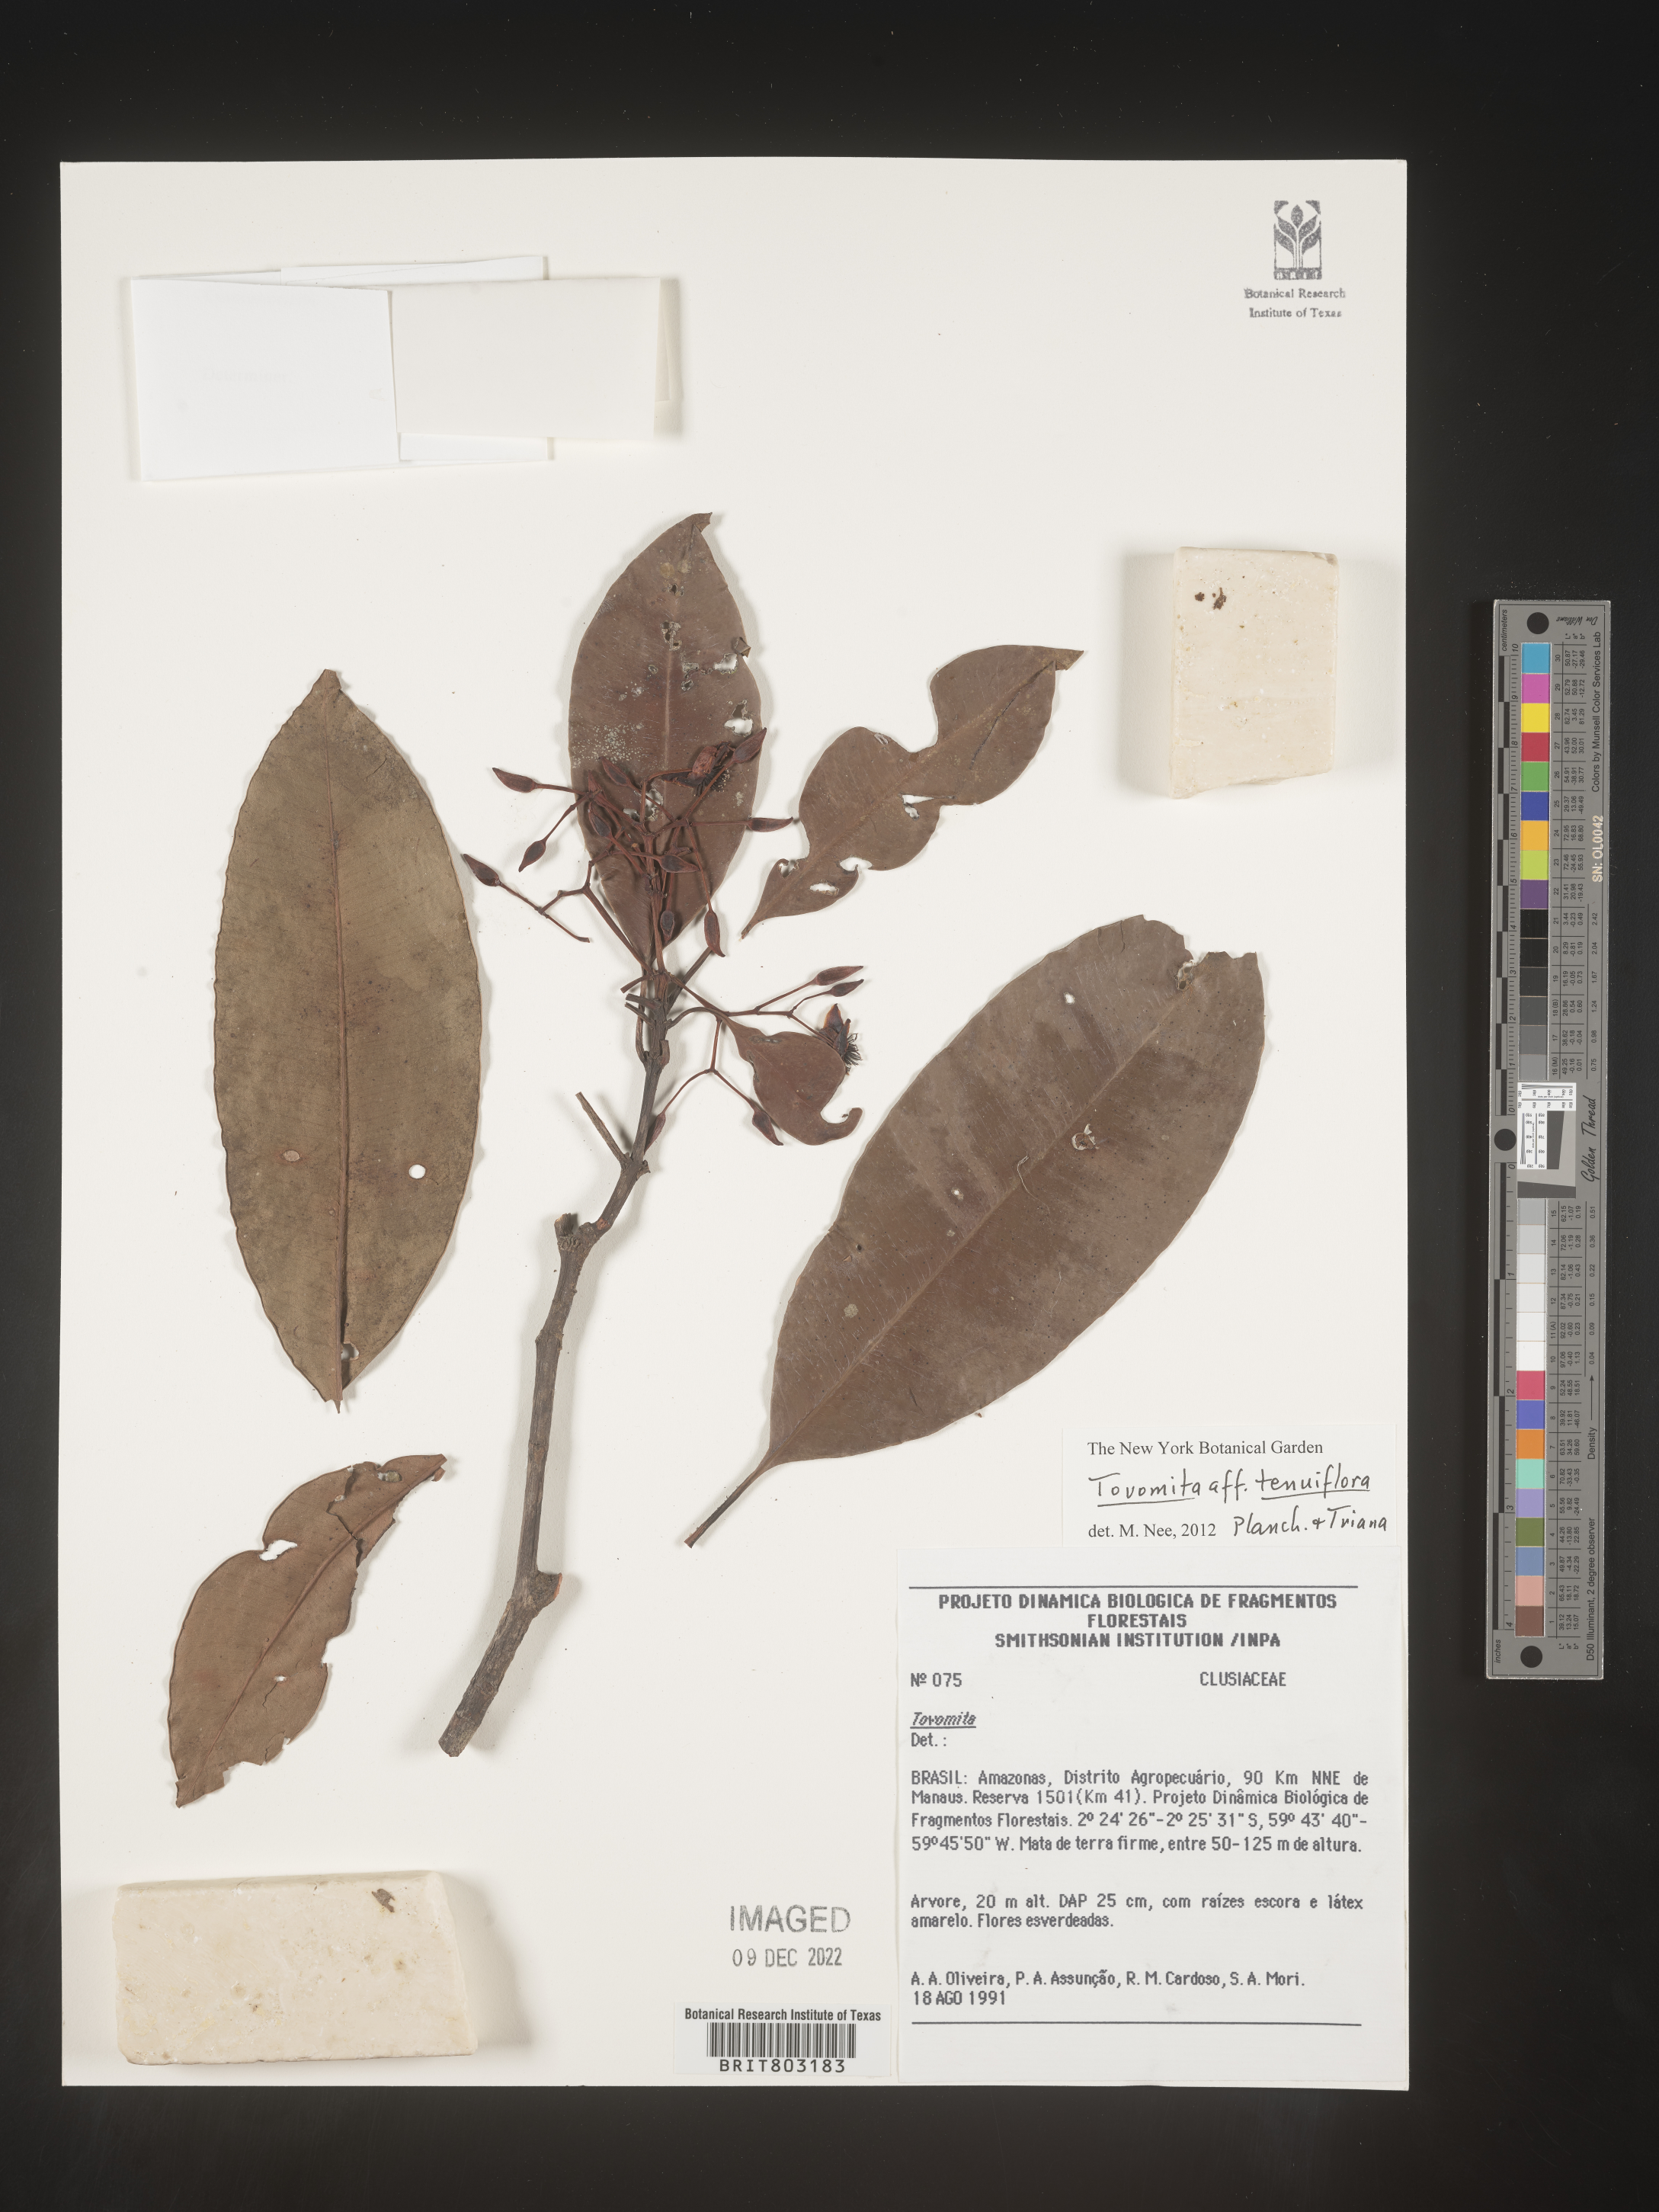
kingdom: Plantae
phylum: Tracheophyta
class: Magnoliopsida
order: Malpighiales
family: Clusiaceae
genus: Tovomita
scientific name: Tovomita
